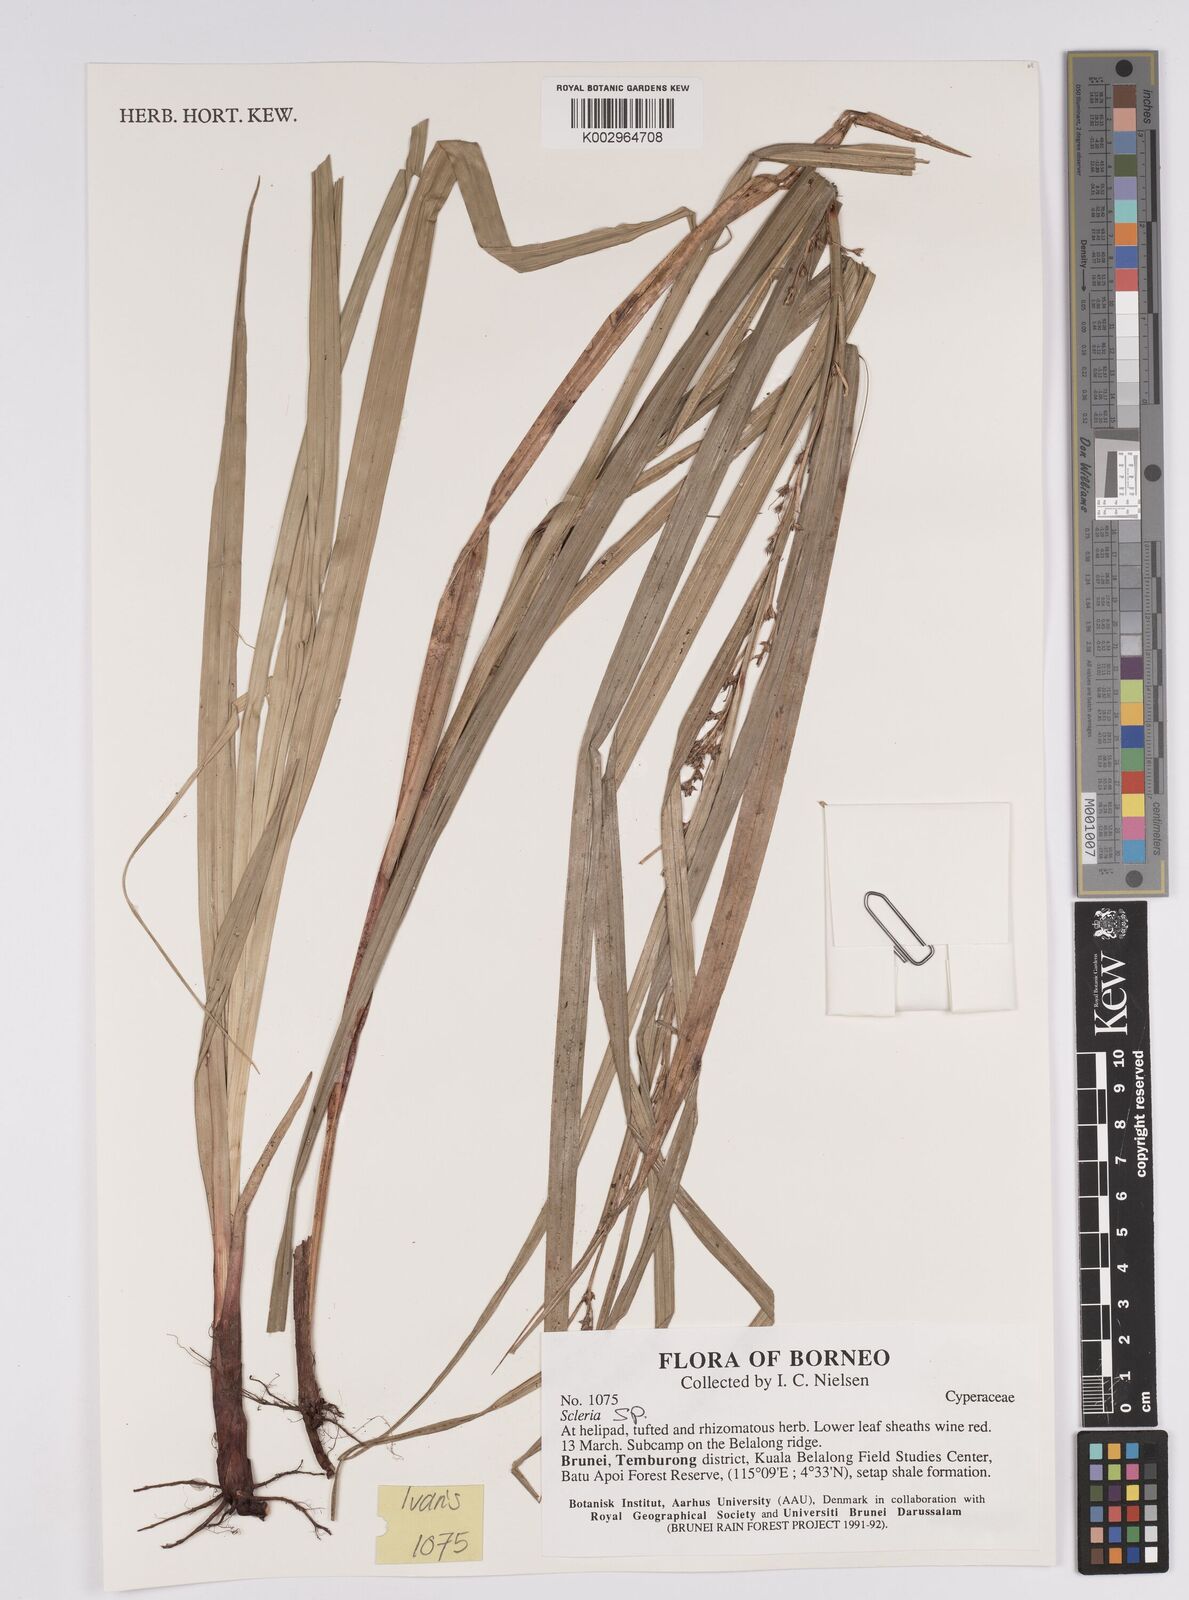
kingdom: Plantae
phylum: Tracheophyta
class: Liliopsida
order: Poales
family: Cyperaceae
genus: Scleria
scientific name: Scleria
